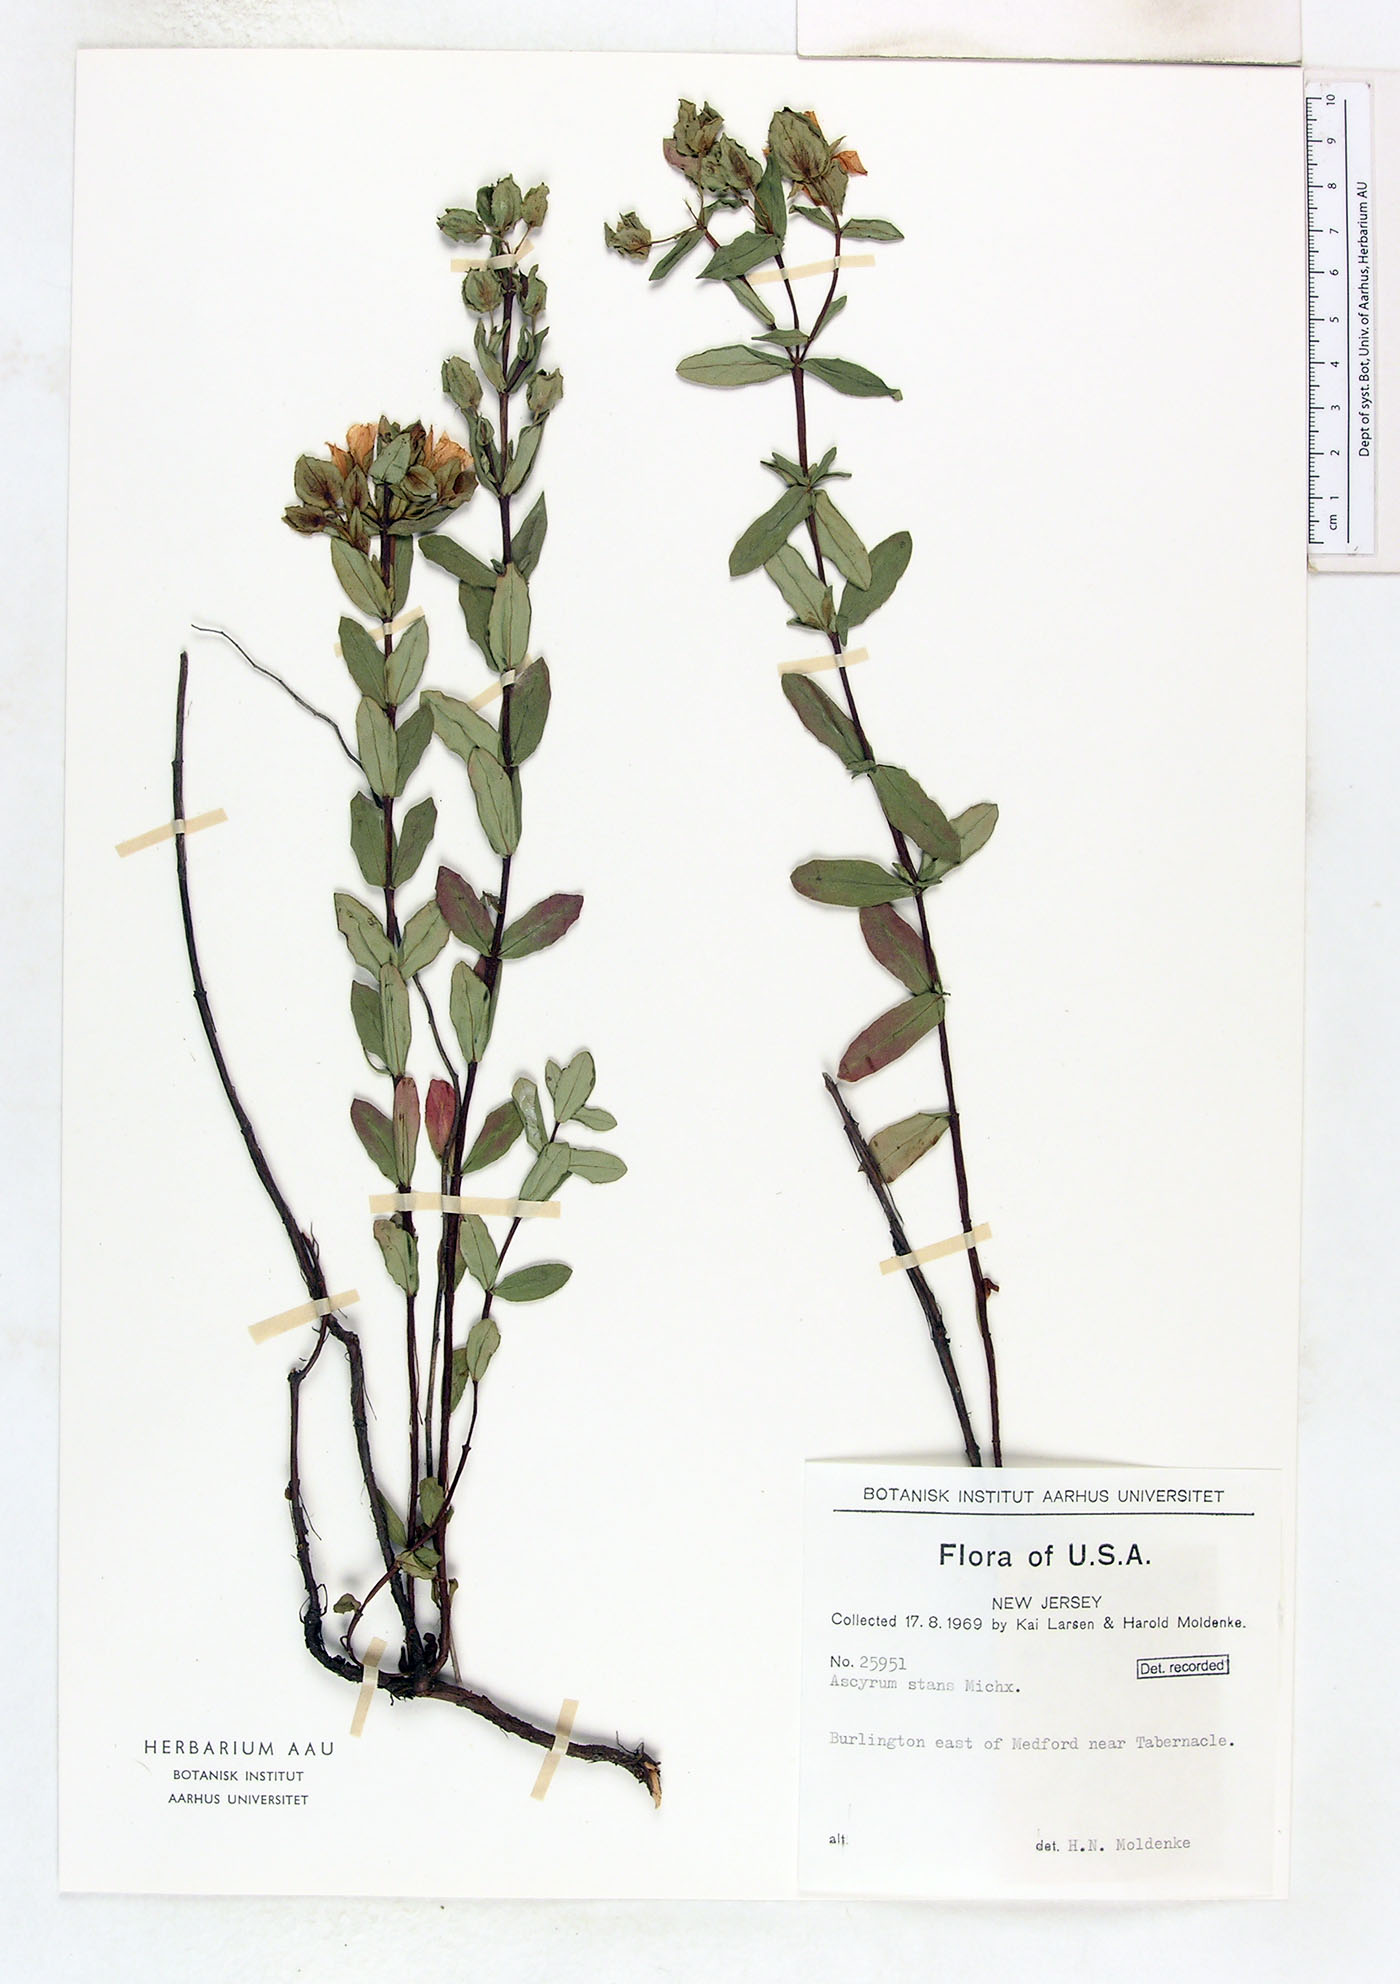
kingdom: Plantae
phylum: Tracheophyta
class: Magnoliopsida
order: Malpighiales
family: Hypericaceae
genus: Hypericum
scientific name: Hypericum crux-andreae
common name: St.-peter's-wort
